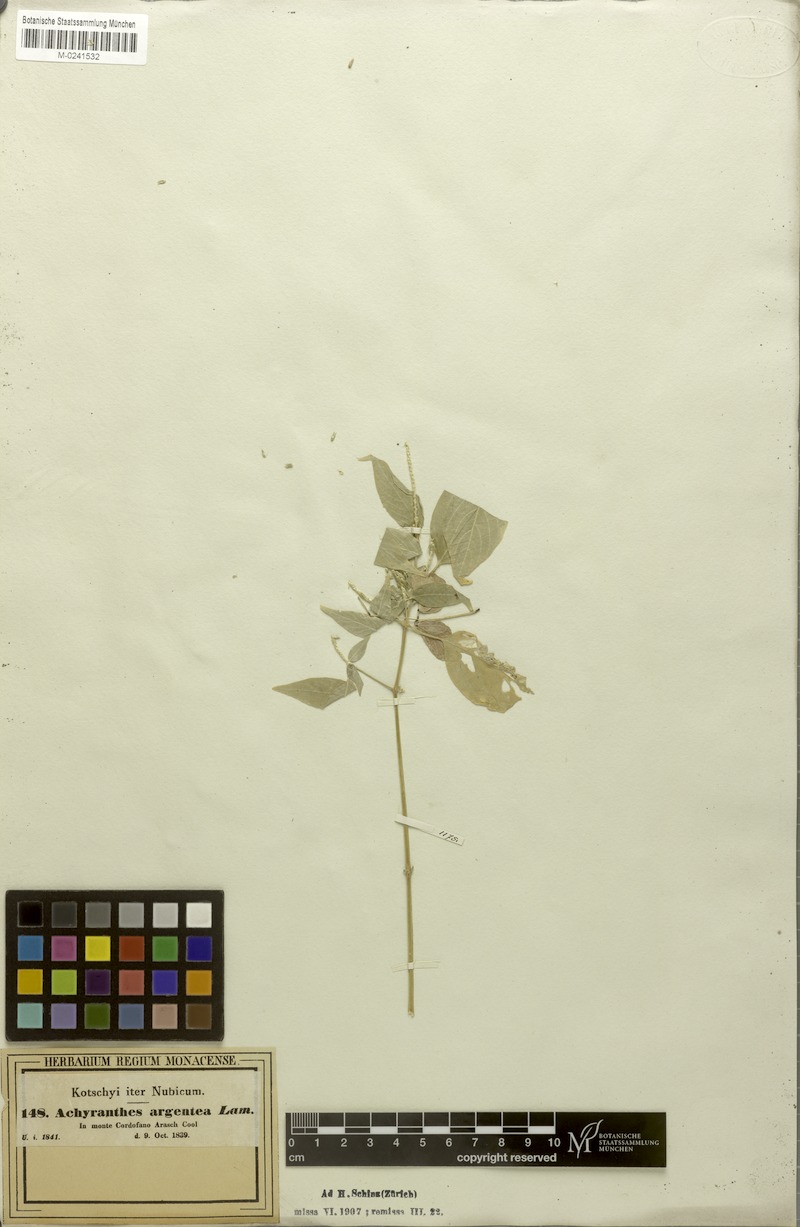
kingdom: Plantae
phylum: Tracheophyta
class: Magnoliopsida
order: Caryophyllales
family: Amaranthaceae
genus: Achyranthes
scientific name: Achyranthes aspera
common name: Devil's horsewhip
